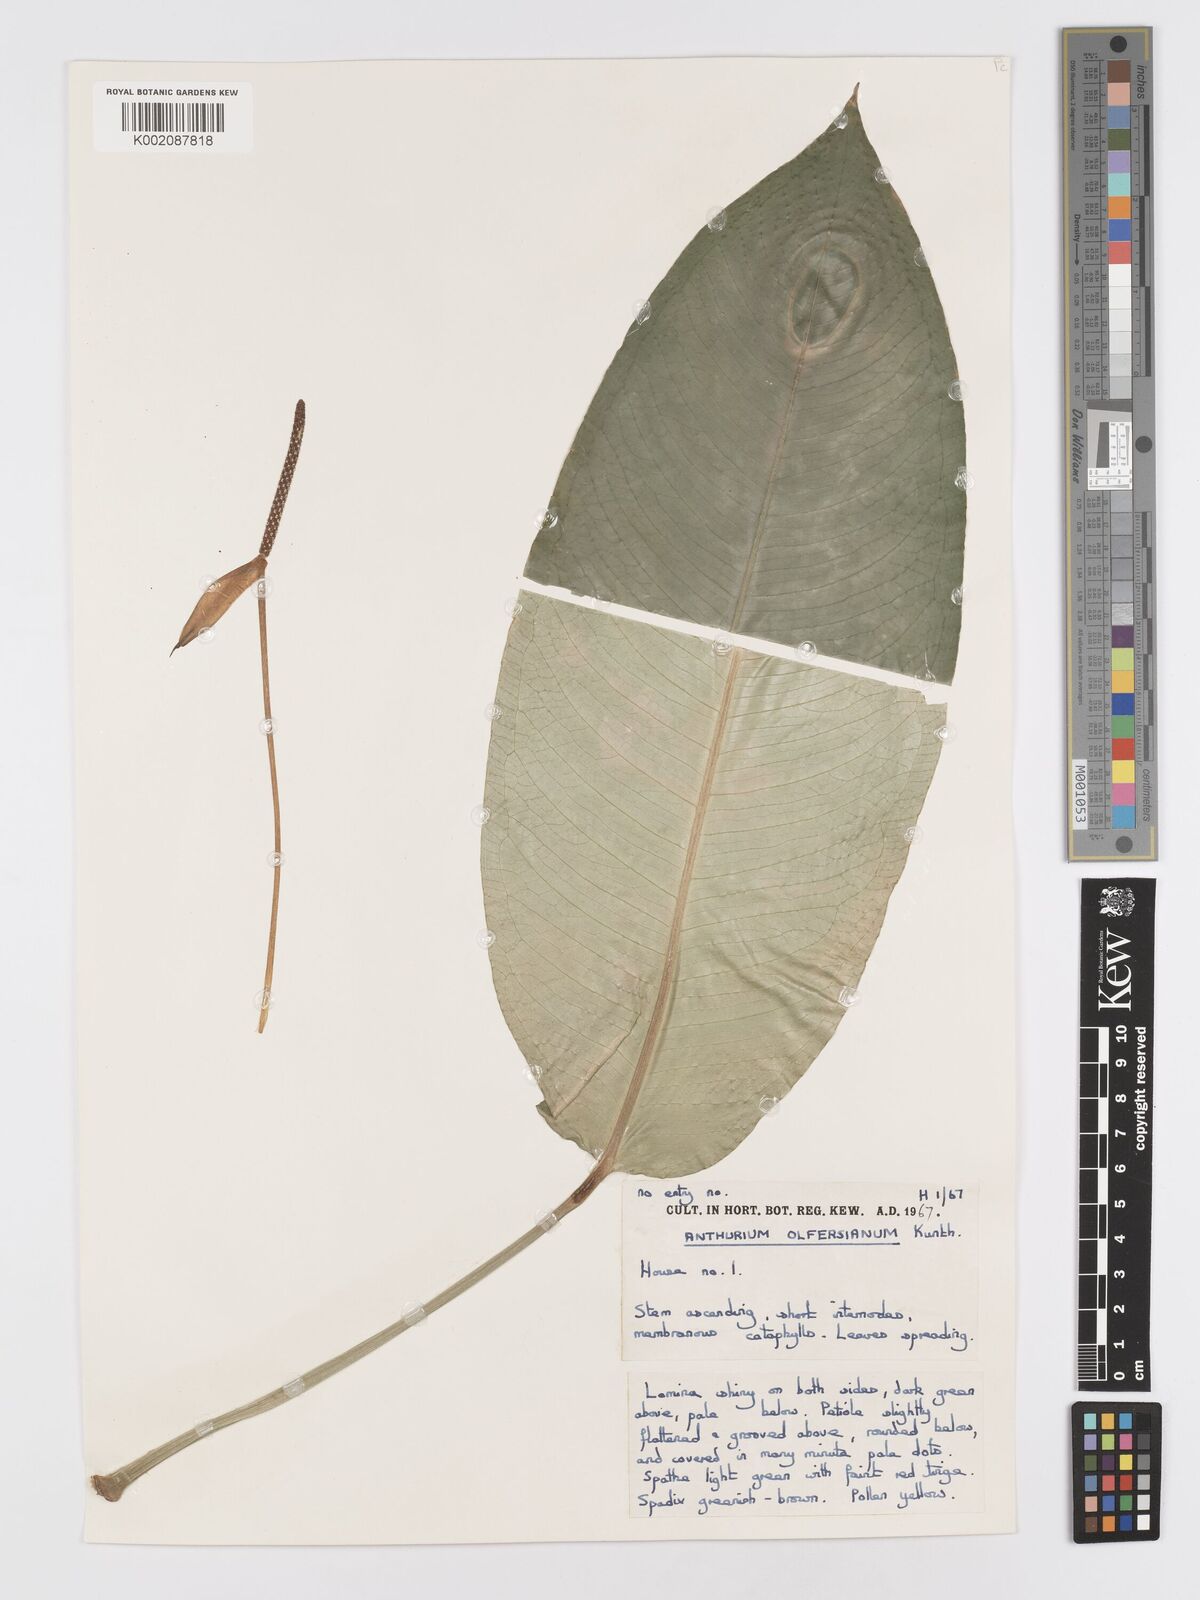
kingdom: Plantae
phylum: Tracheophyta
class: Liliopsida
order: Alismatales
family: Araceae
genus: Anthurium
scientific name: Anthurium parasiticum
